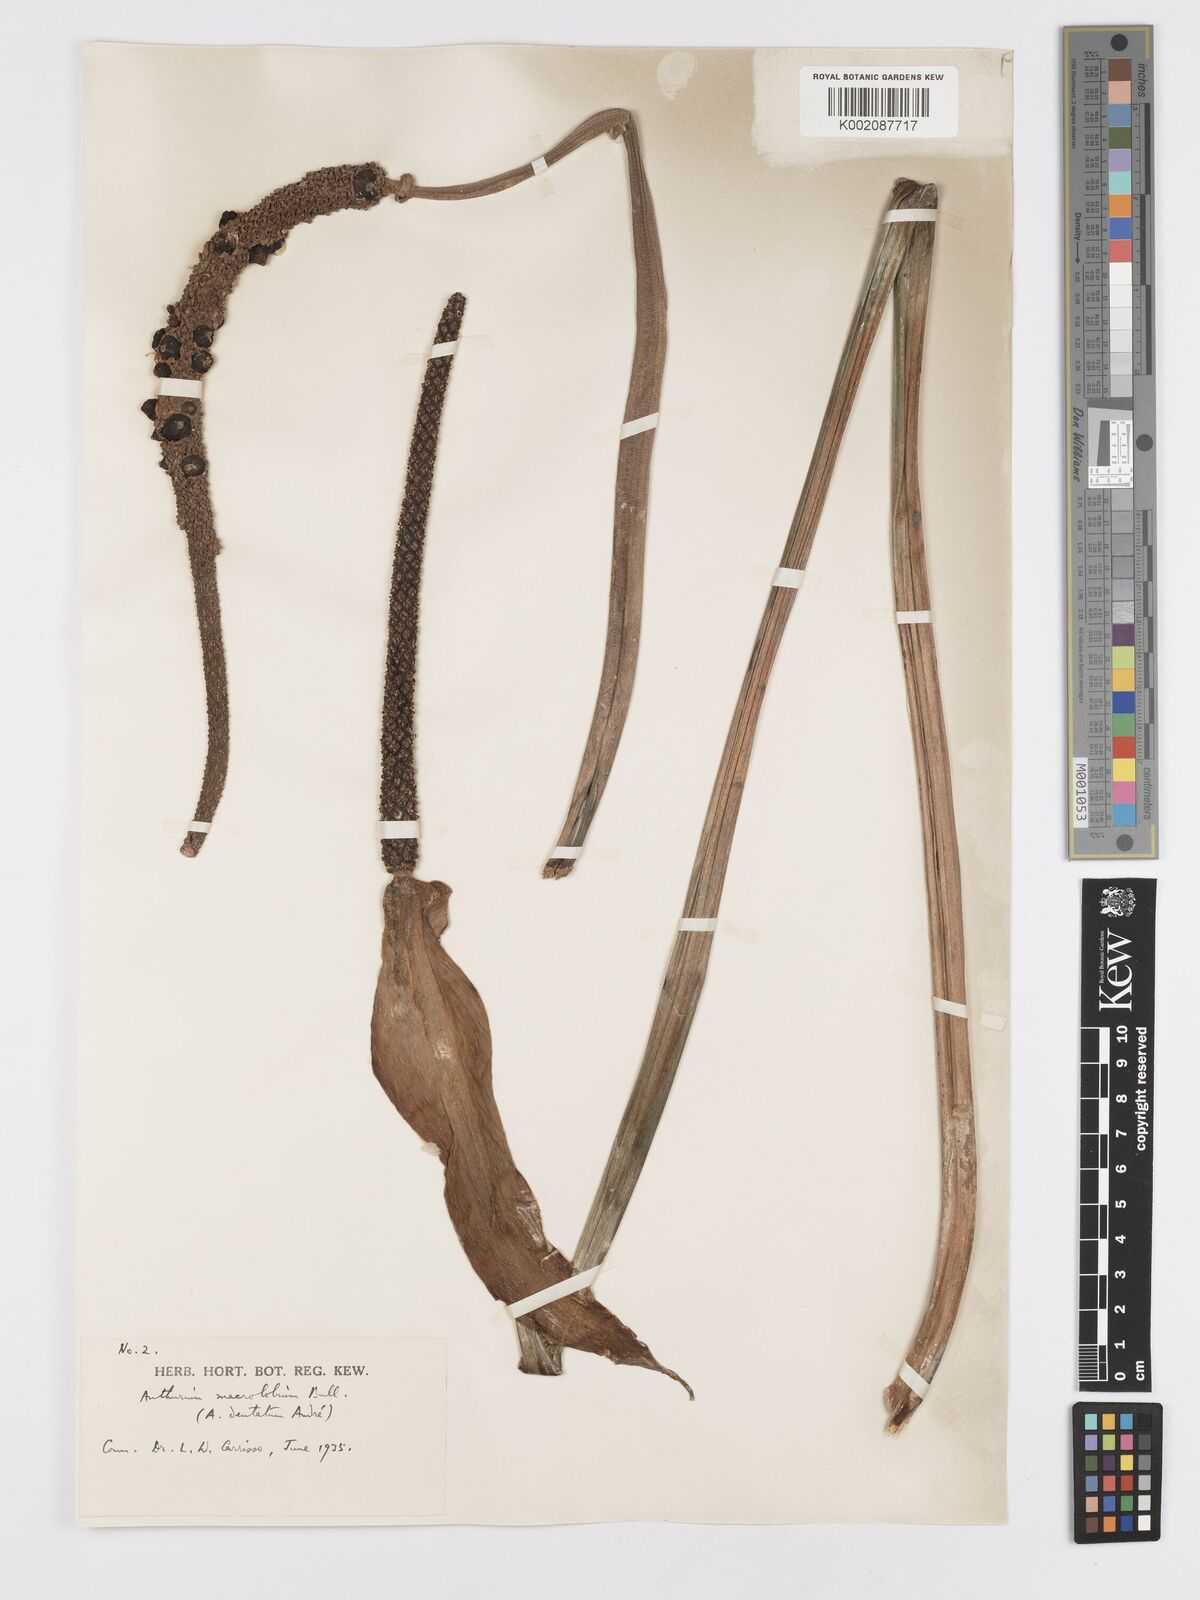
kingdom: Plantae
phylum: Tracheophyta
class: Liliopsida
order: Alismatales
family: Araceae
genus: Anthurium
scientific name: Anthurium leuconeurum
